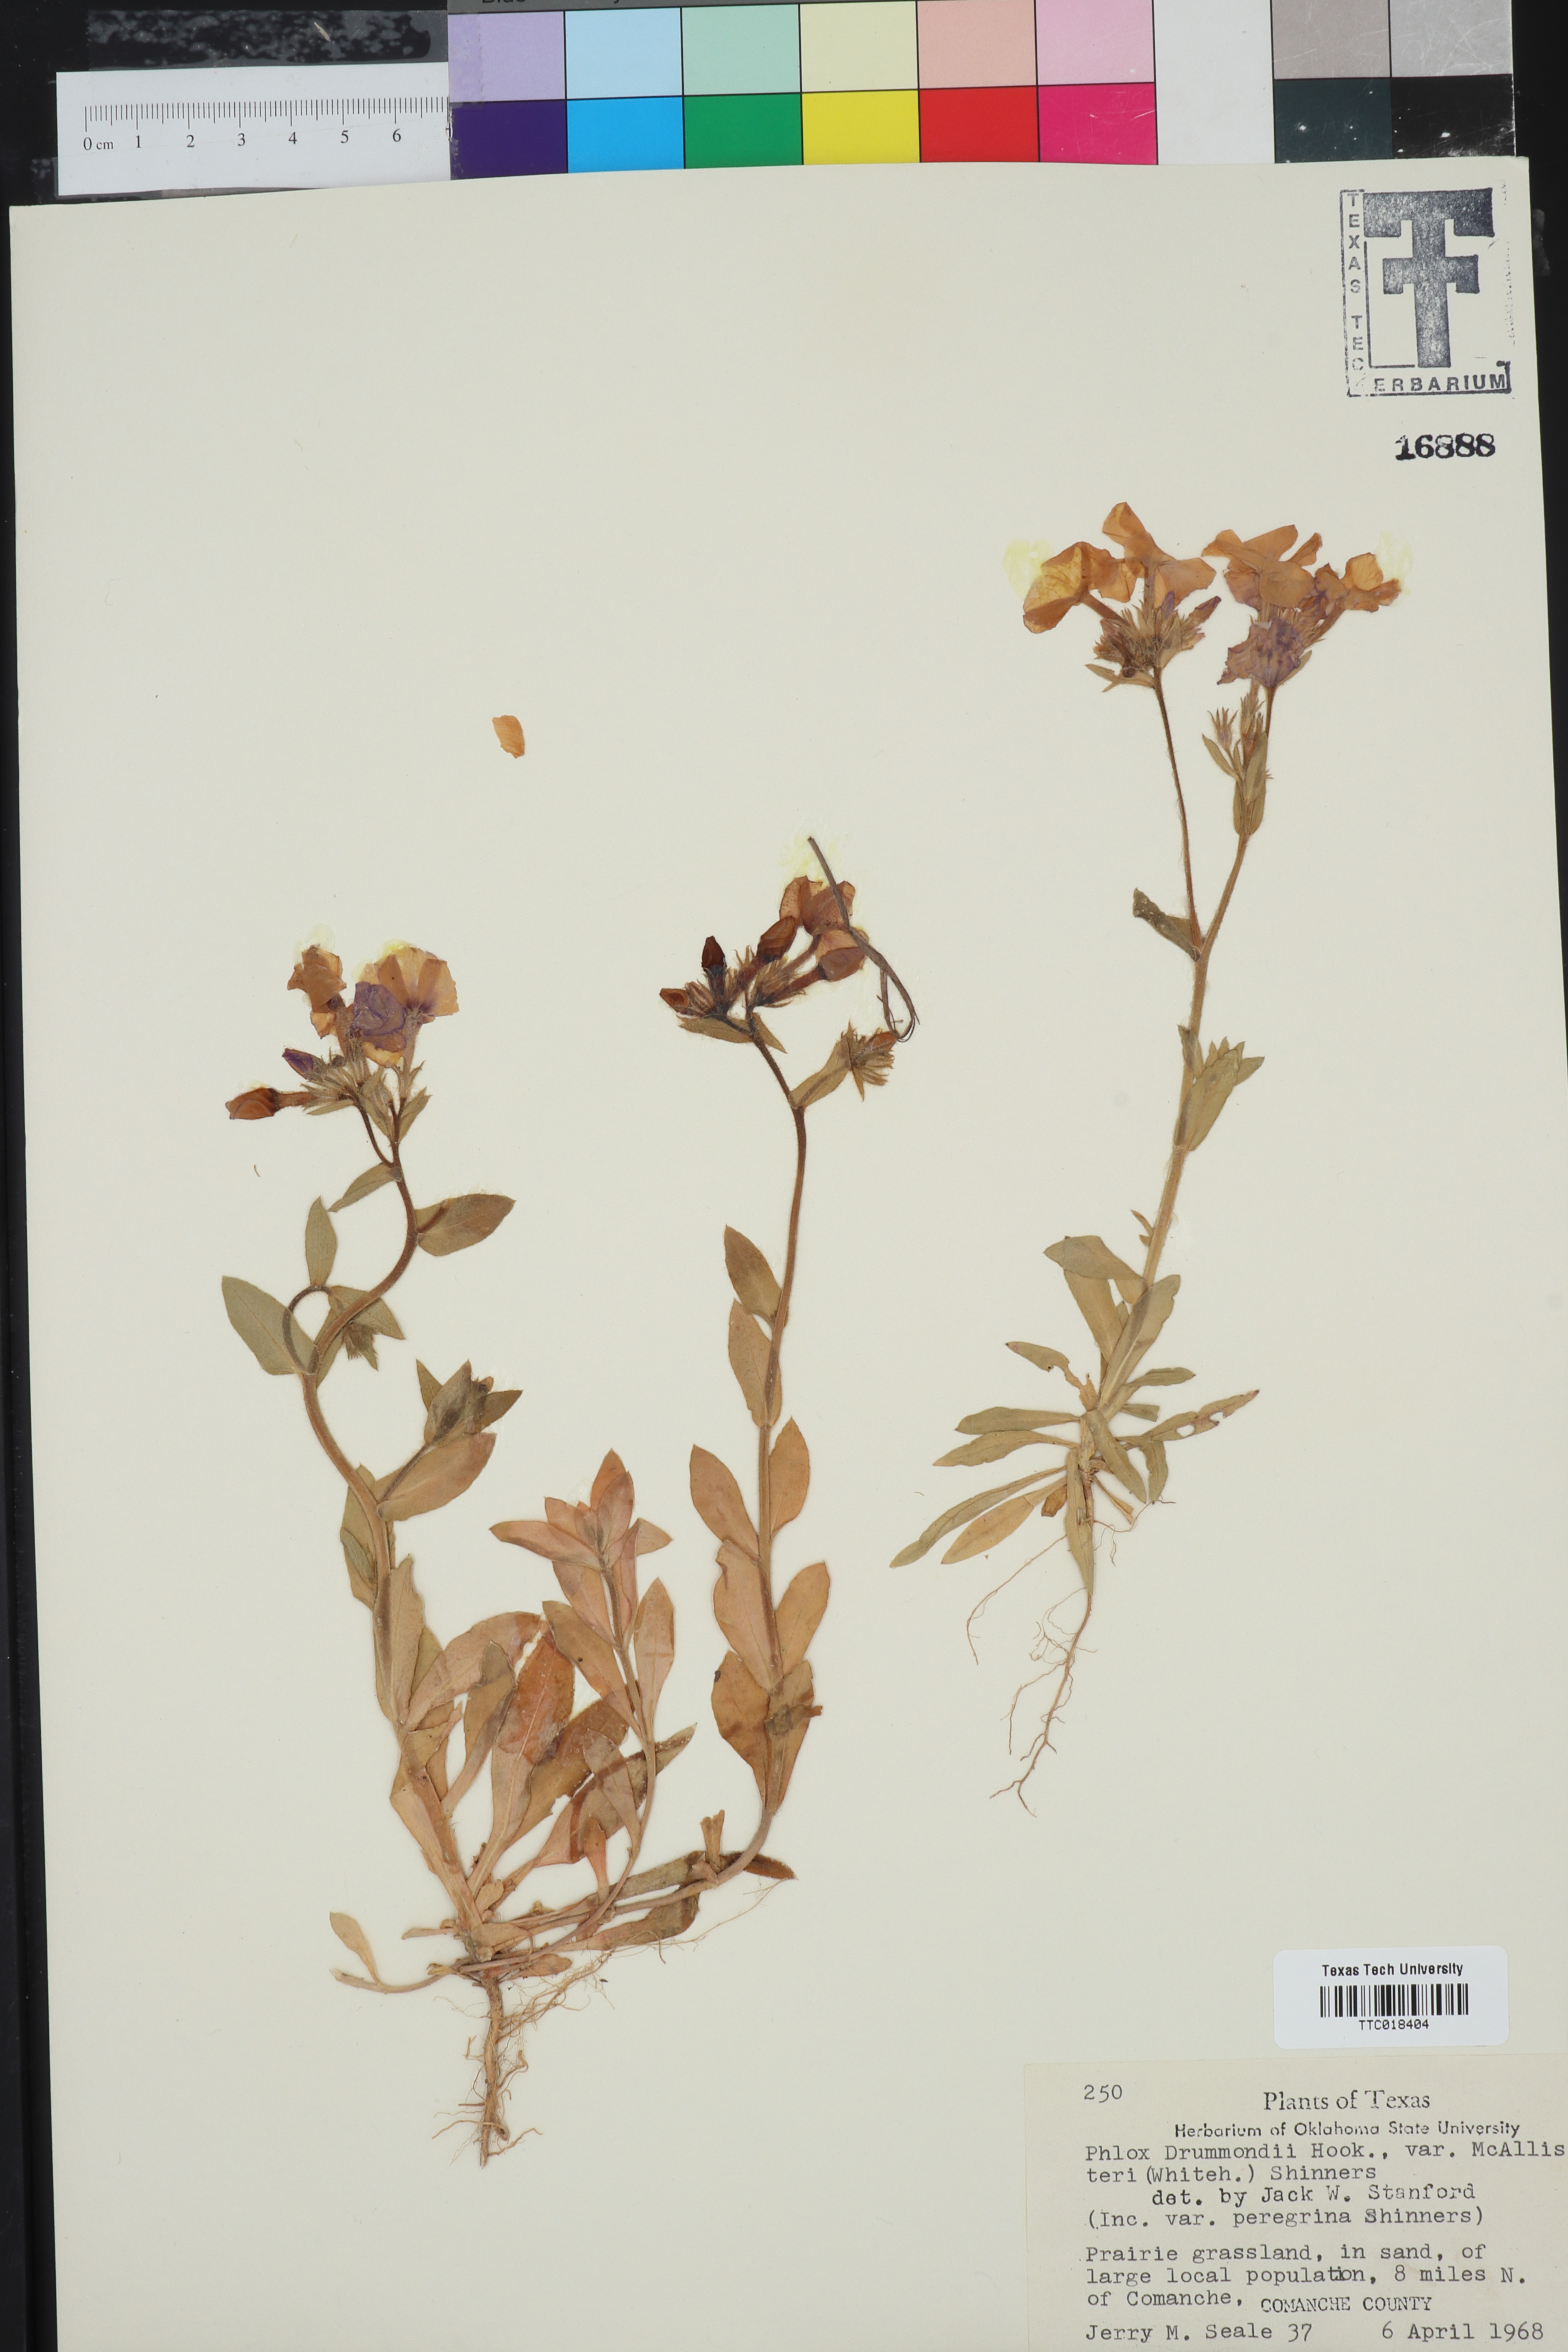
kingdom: Plantae
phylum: Tracheophyta
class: Magnoliopsida
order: Ericales
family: Polemoniaceae
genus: Phlox
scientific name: Phlox drummondii
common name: Drummond's phlox
